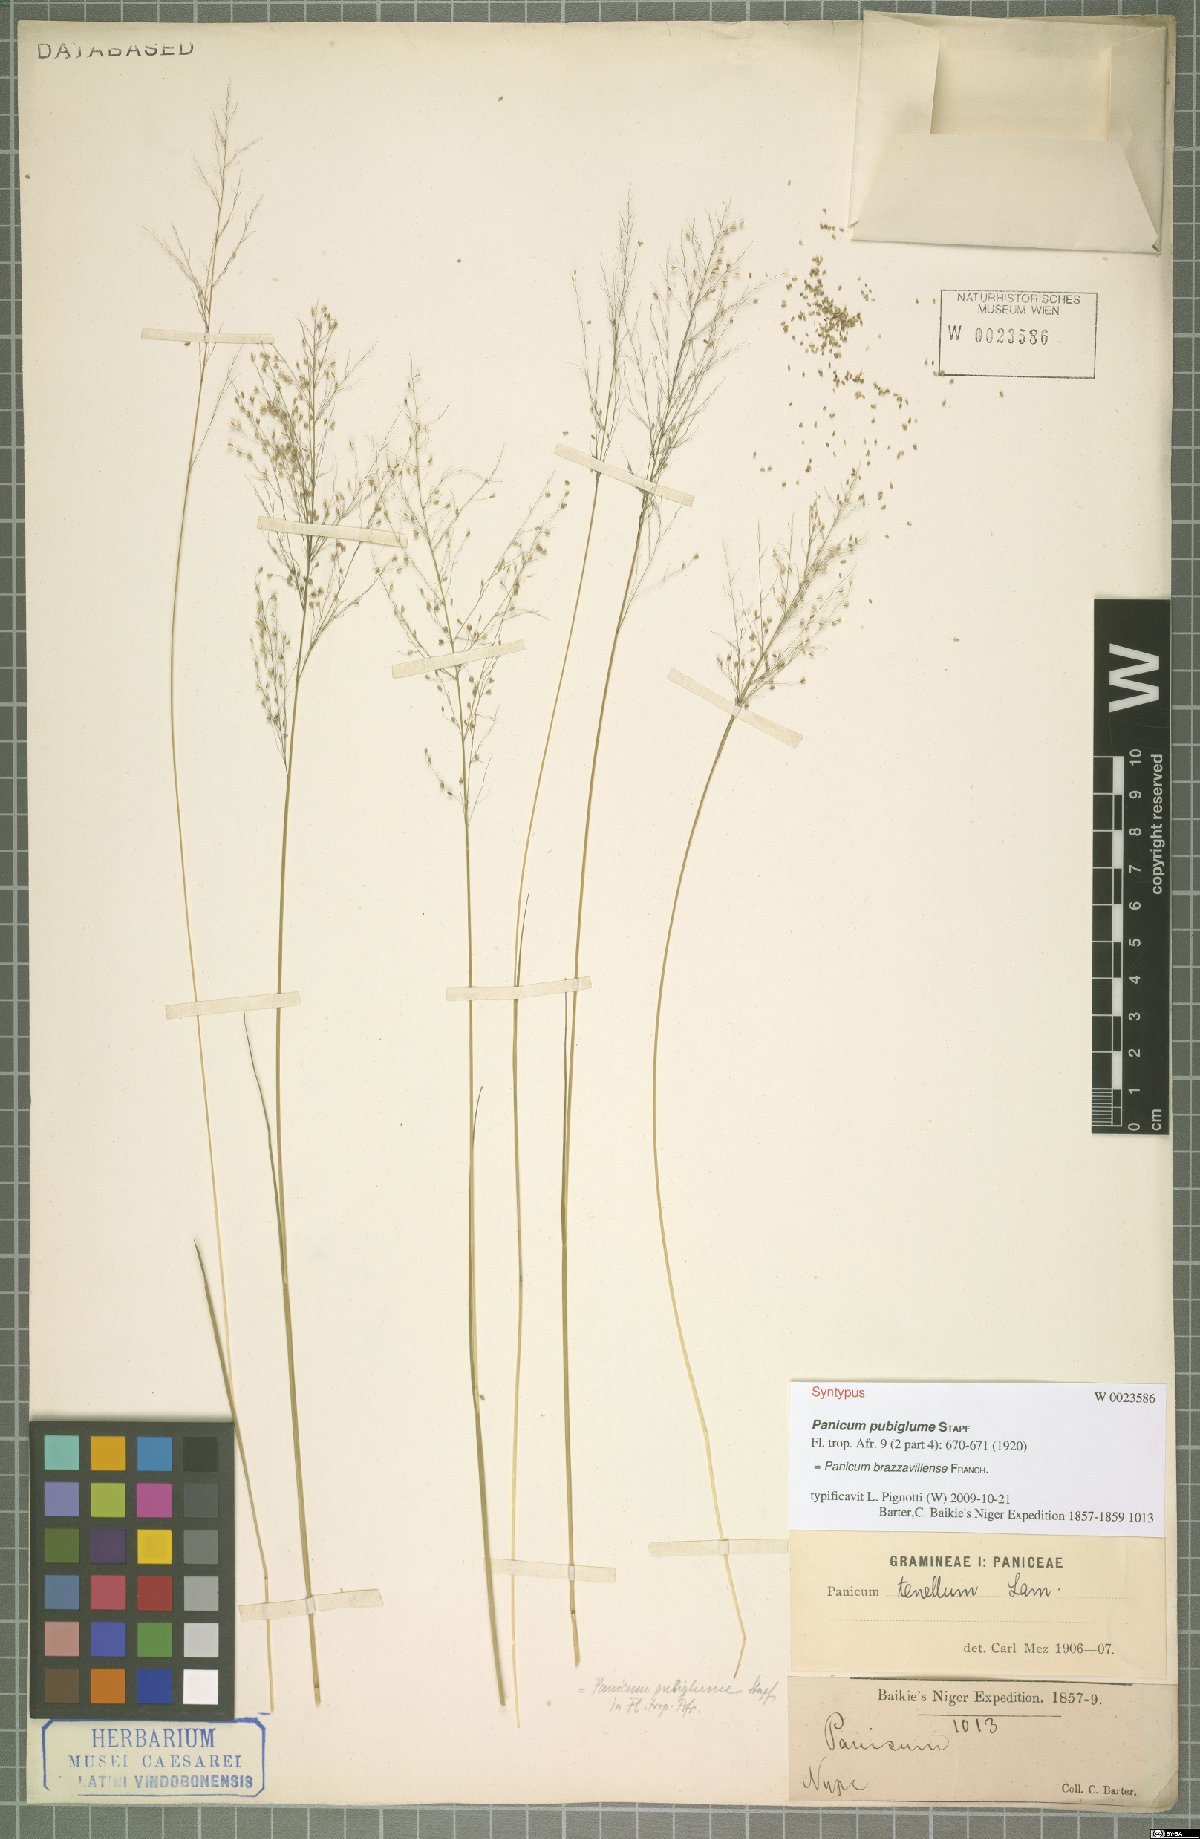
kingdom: Plantae
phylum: Tracheophyta
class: Liliopsida
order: Poales
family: Poaceae
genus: Trichanthecium
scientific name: Trichanthecium brazzavillense
